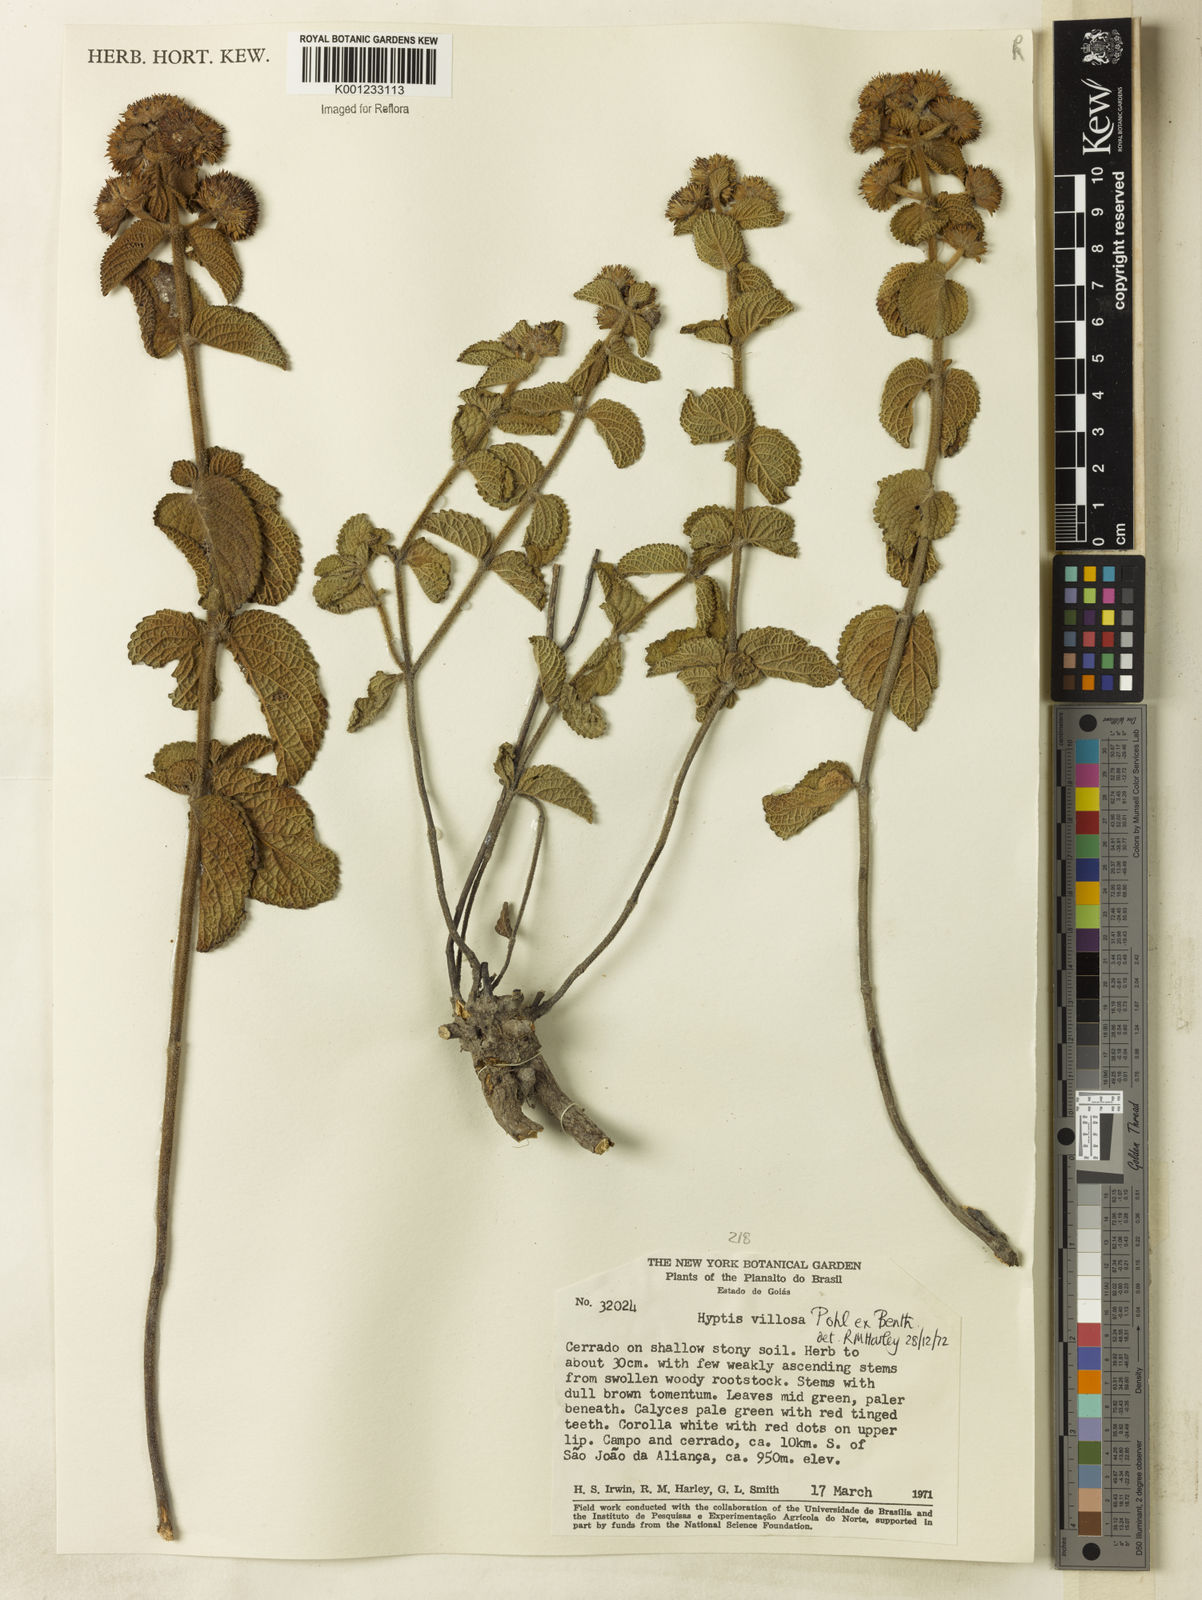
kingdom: Plantae
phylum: Tracheophyta
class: Magnoliopsida
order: Lamiales
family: Lamiaceae
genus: Hyptis
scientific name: Hyptis villosa
